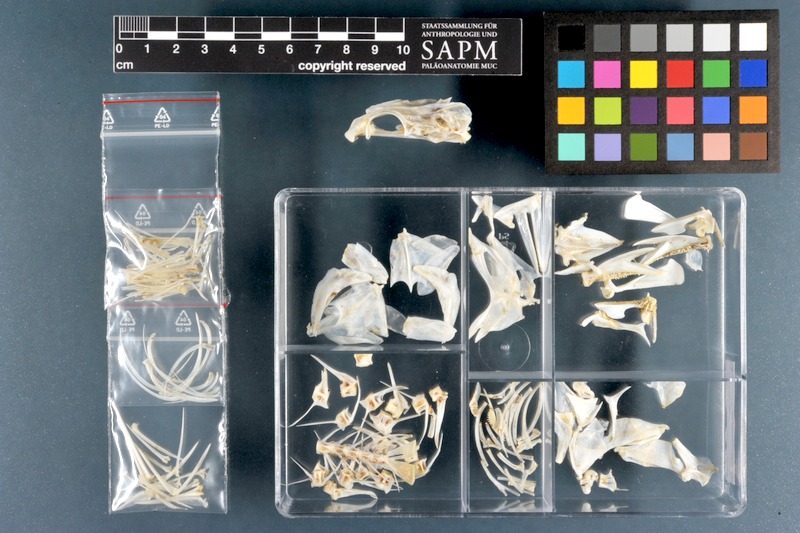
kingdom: Animalia
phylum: Chordata
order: Perciformes
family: Serranidae
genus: Cephalopholis
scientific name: Cephalopholis miniata
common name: Coral hind
